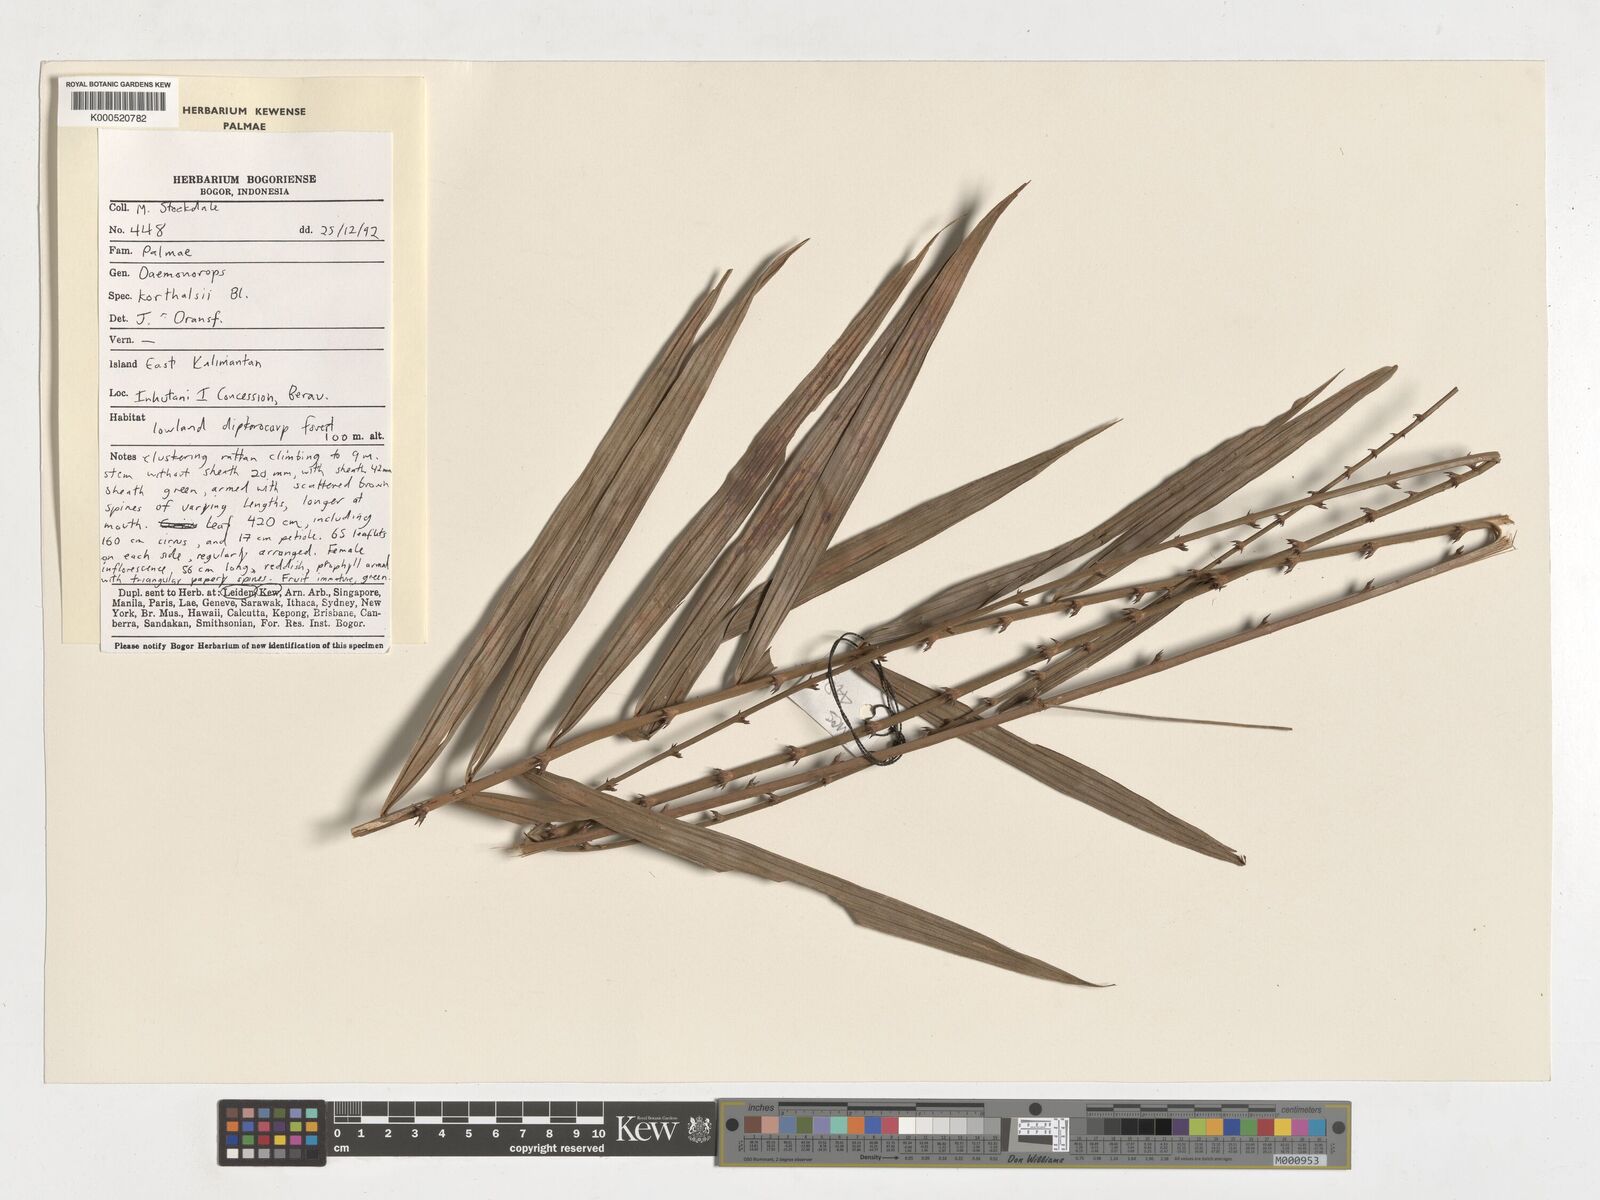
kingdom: Plantae
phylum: Tracheophyta
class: Liliopsida
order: Arecales
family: Arecaceae
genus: Calamus
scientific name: Calamus hirsutus
